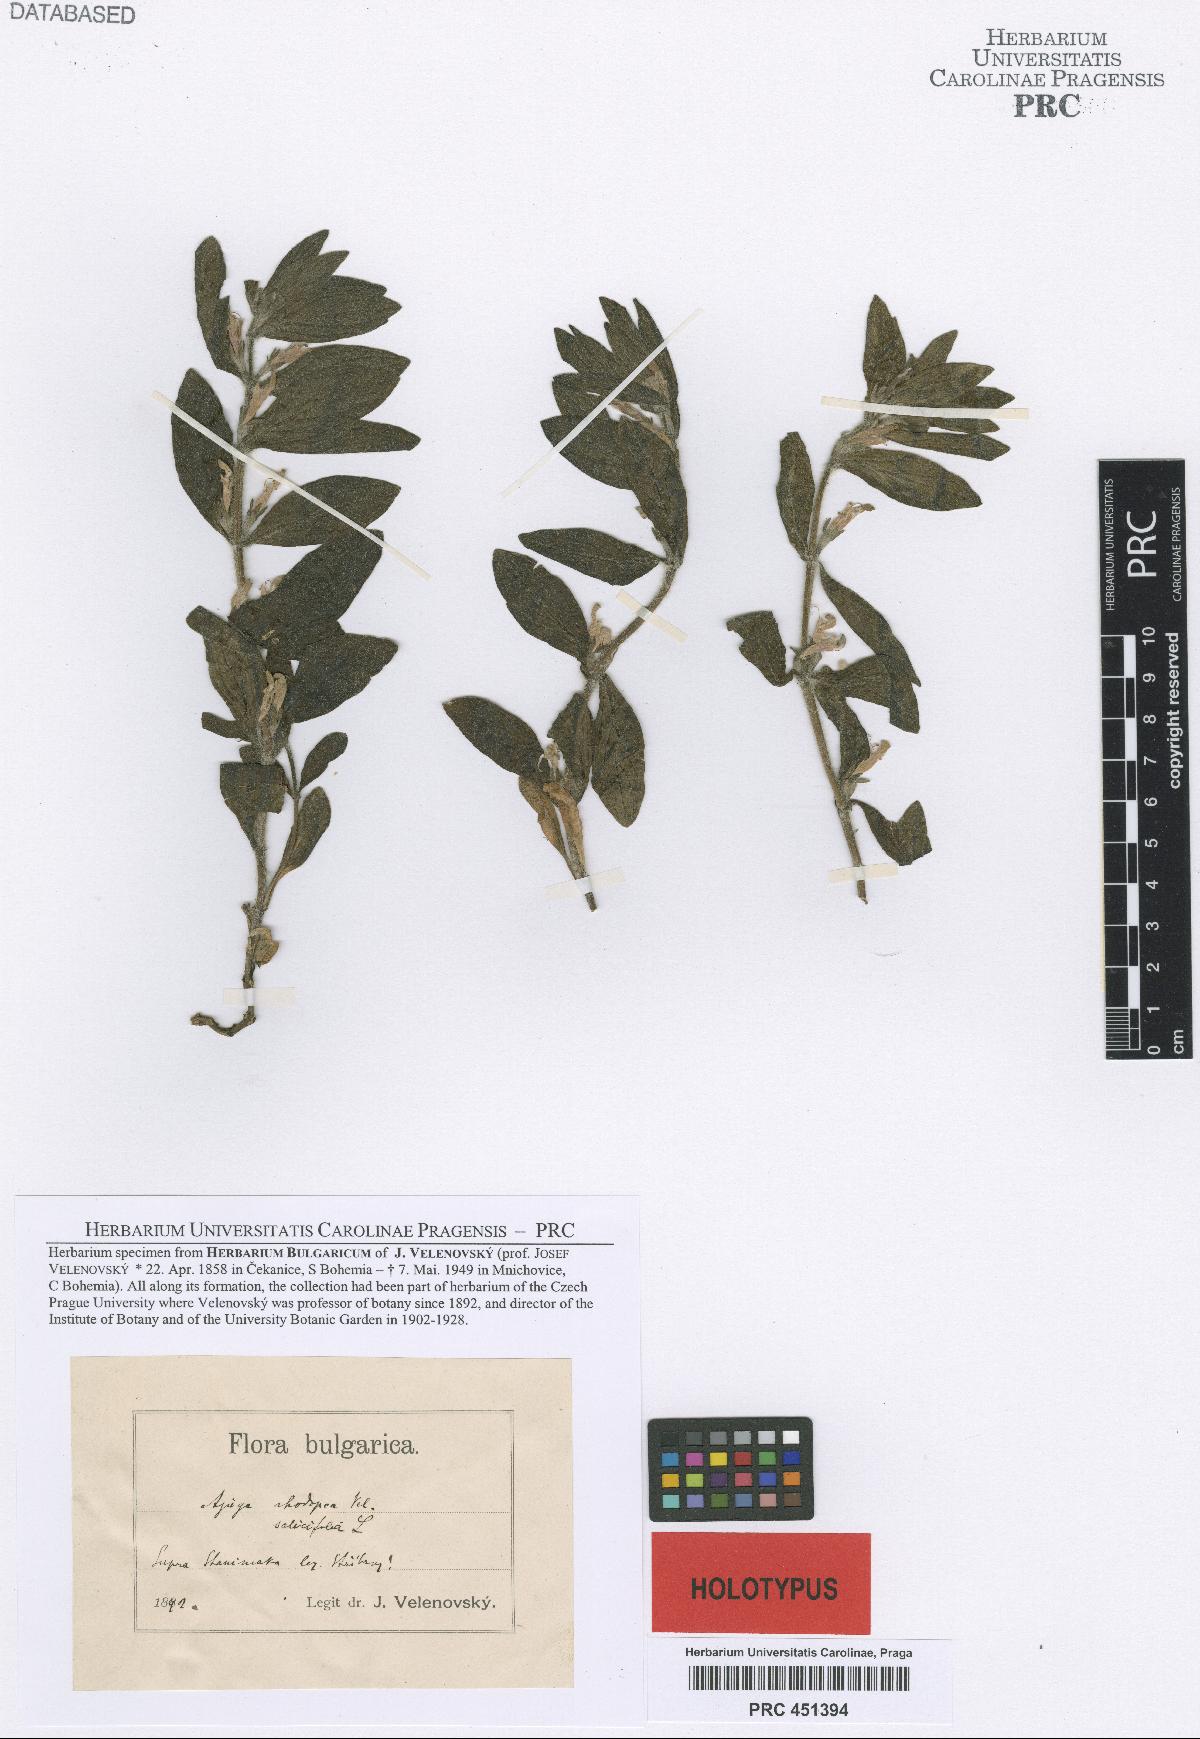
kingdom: Plantae
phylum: Tracheophyta
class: Magnoliopsida
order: Lamiales
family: Lamiaceae
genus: Ajuga
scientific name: Ajuga salicifolia
